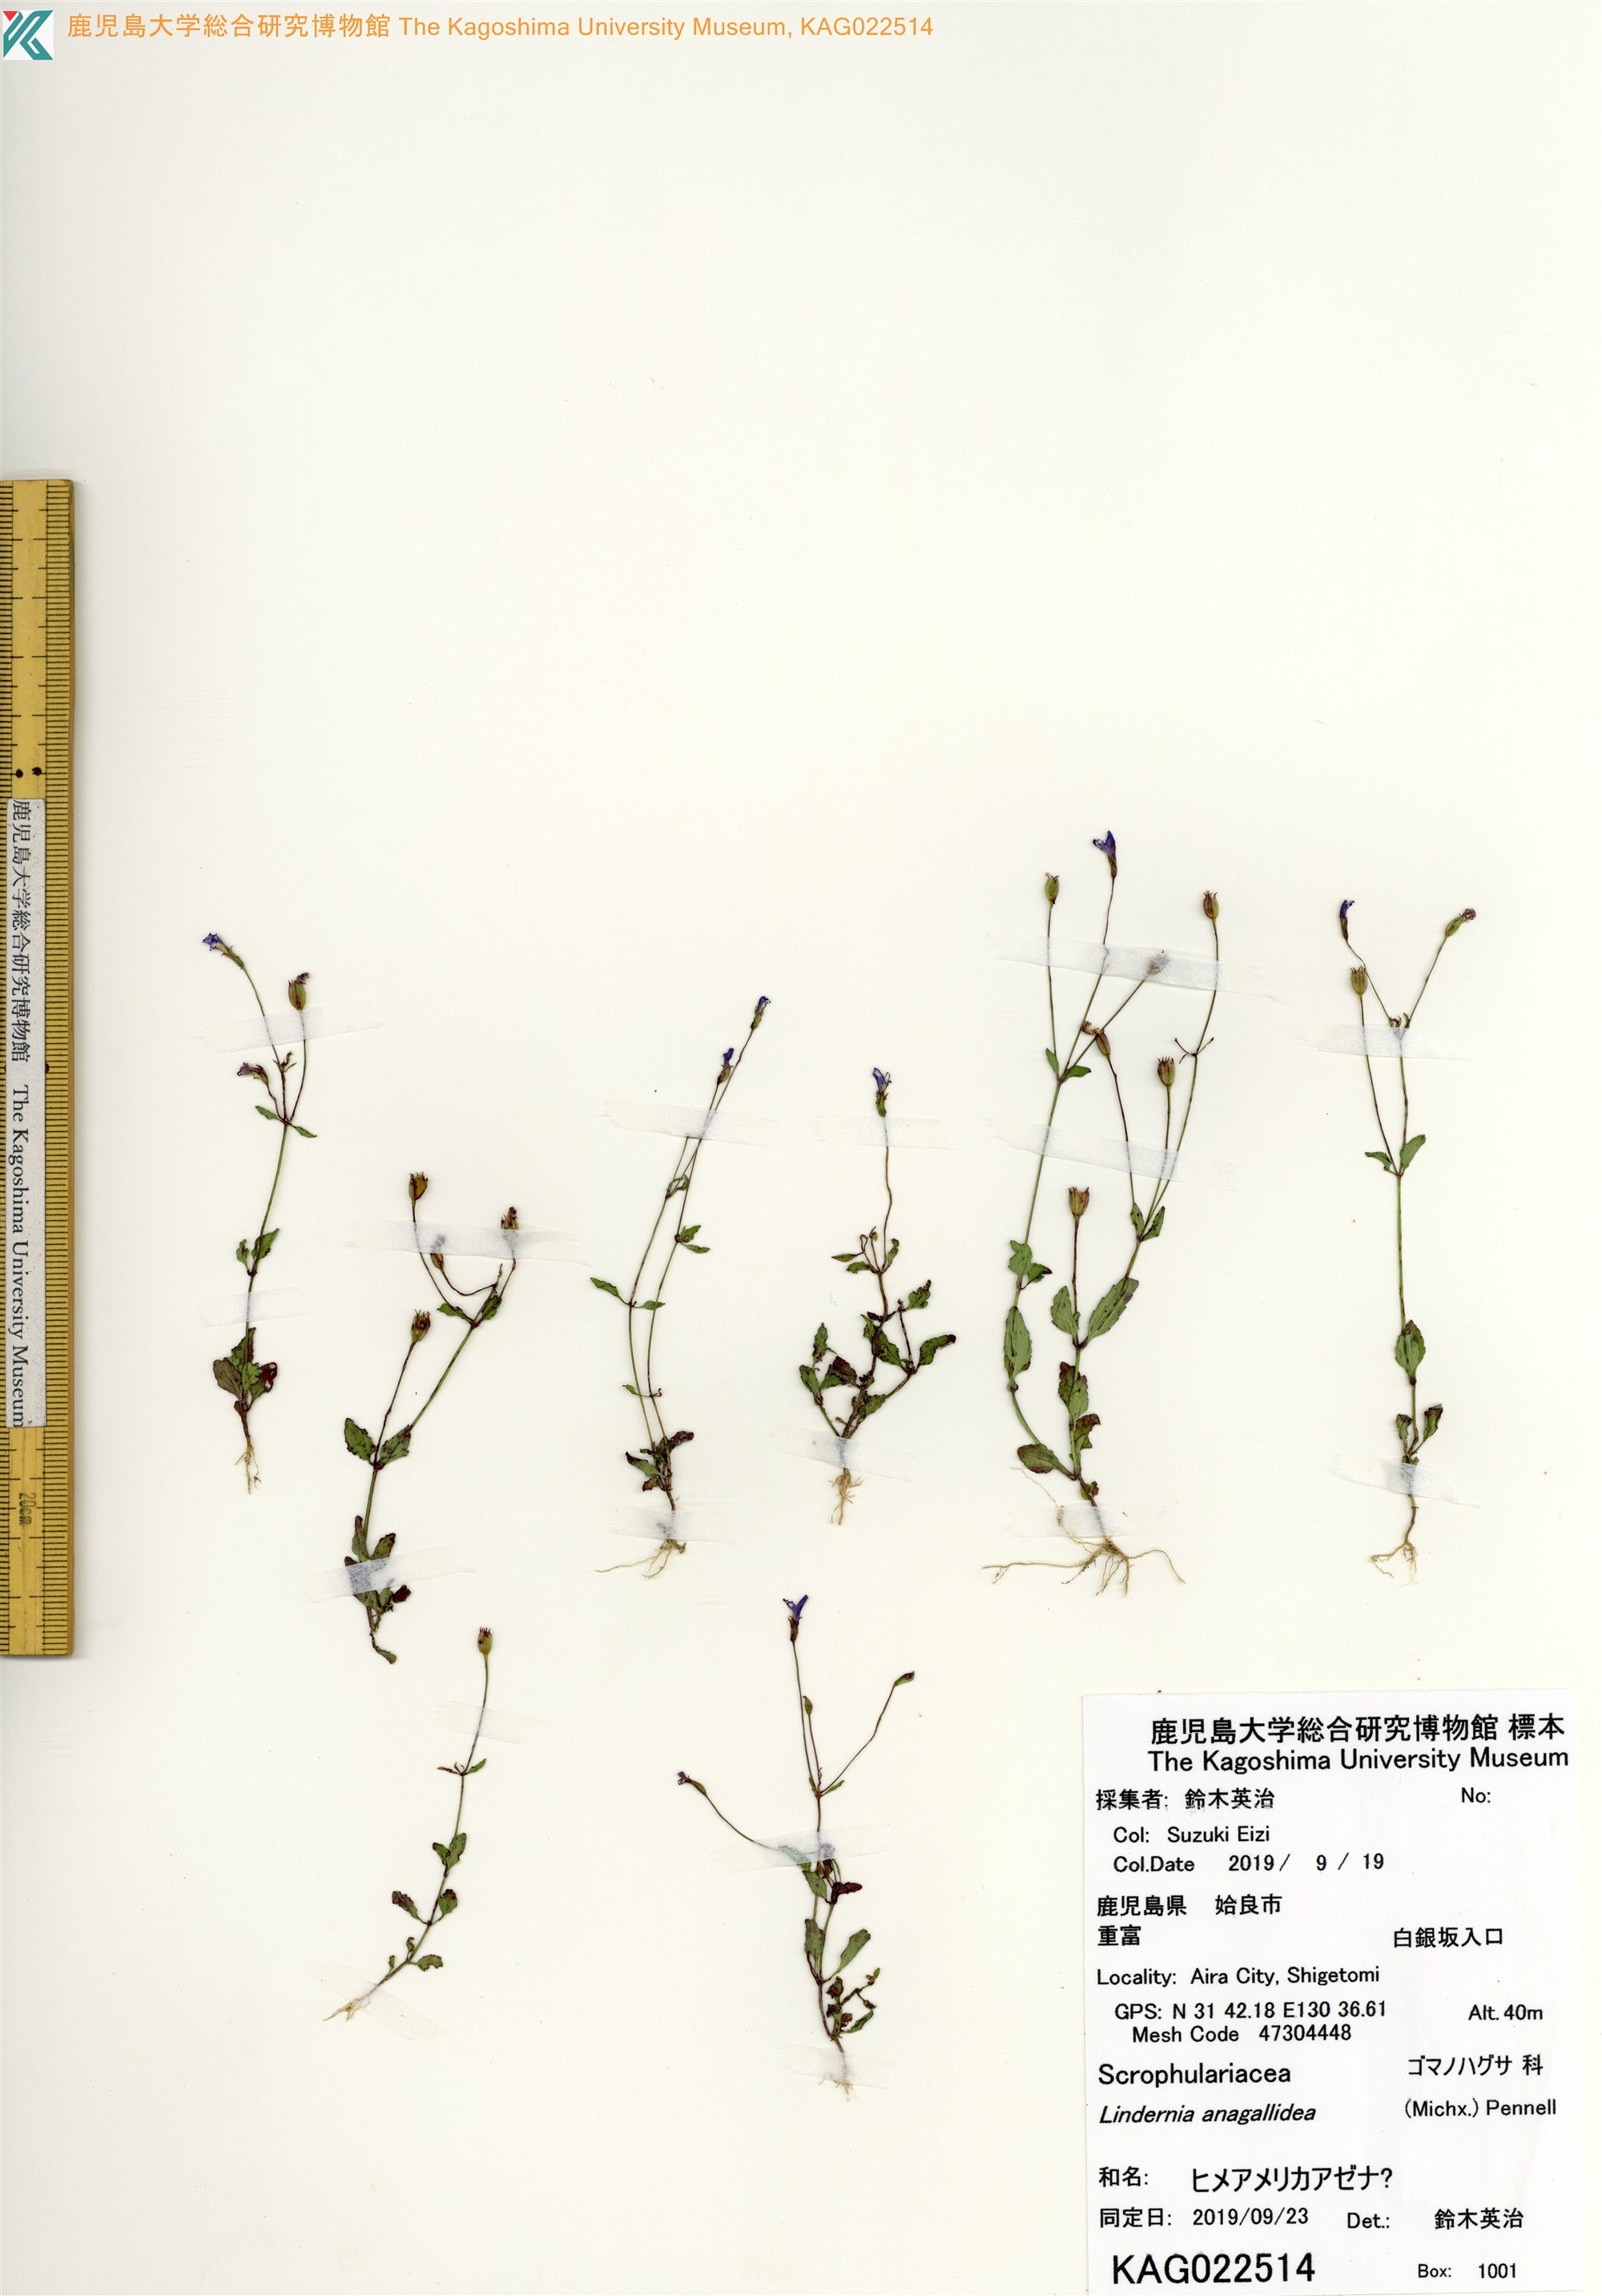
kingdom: Plantae
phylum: Tracheophyta
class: Magnoliopsida
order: Lamiales
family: Linderniaceae
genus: Lindernia
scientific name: Lindernia
